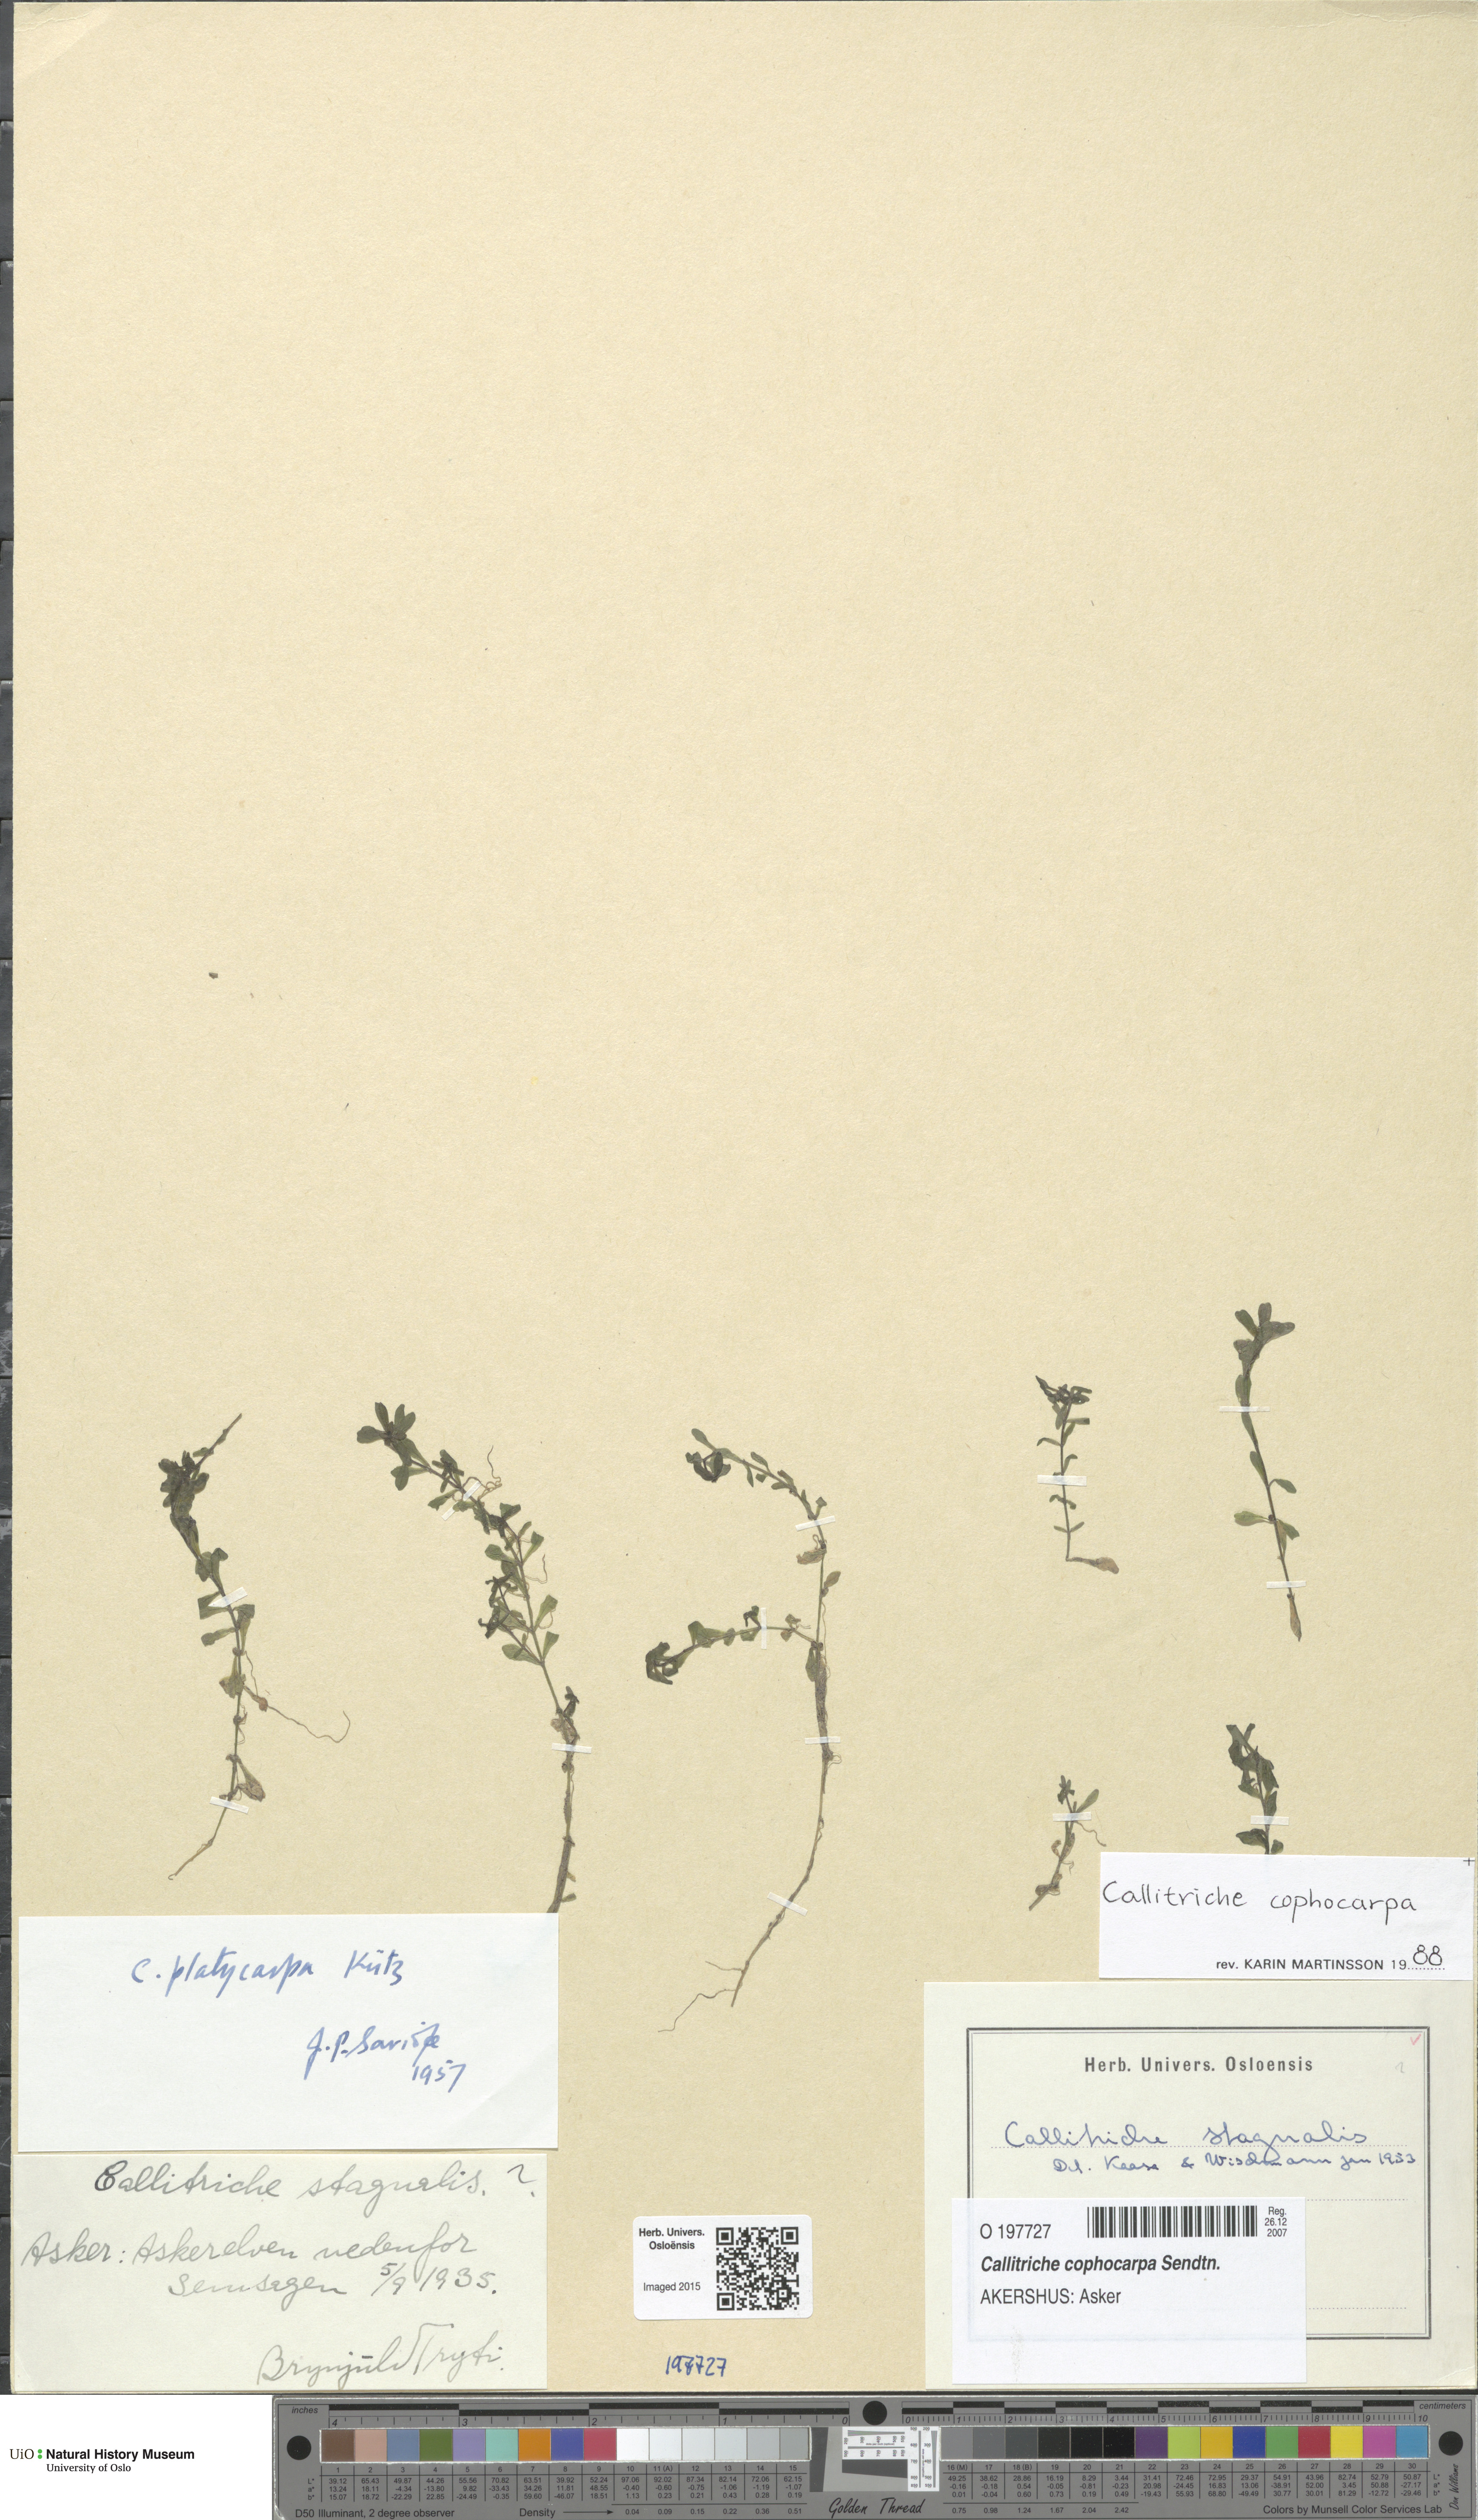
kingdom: Plantae
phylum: Tracheophyta
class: Magnoliopsida
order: Lamiales
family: Plantaginaceae
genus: Callitriche
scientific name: Callitriche cophocarpa
